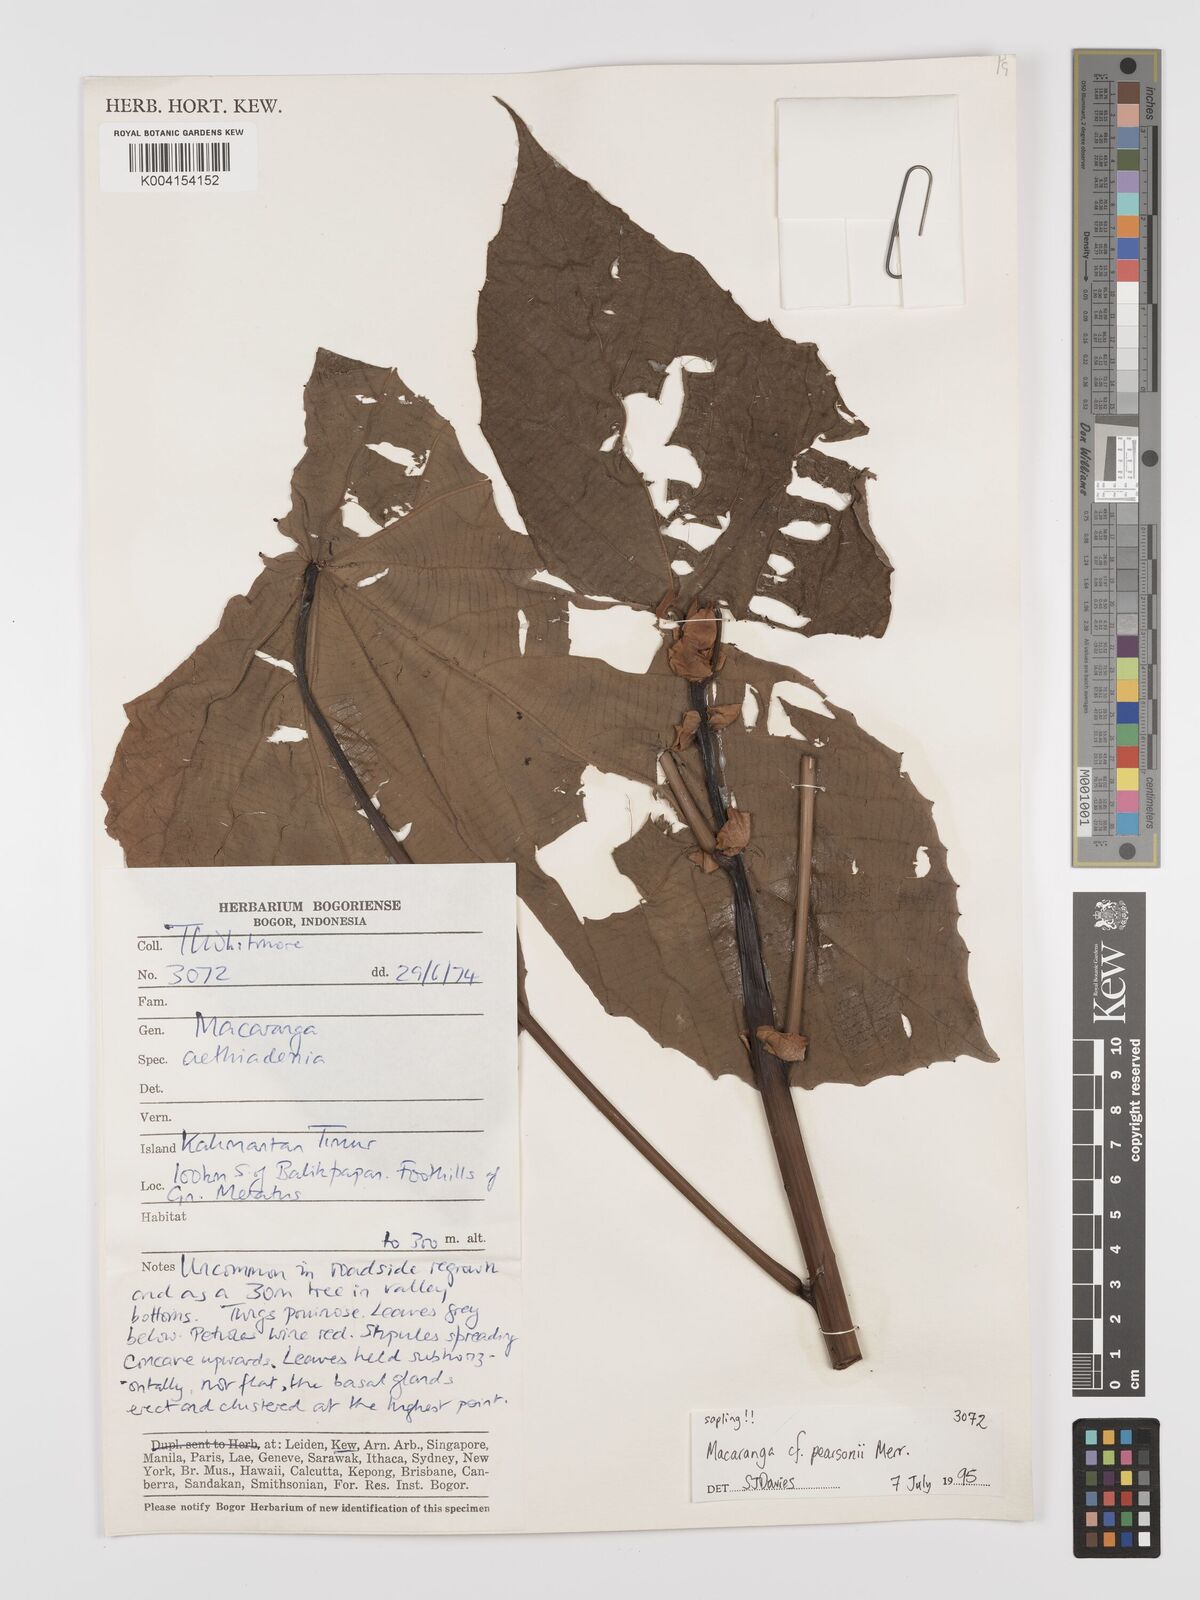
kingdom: Plantae
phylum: Tracheophyta
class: Magnoliopsida
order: Malpighiales
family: Euphorbiaceae
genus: Macaranga
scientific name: Macaranga pearsonii
